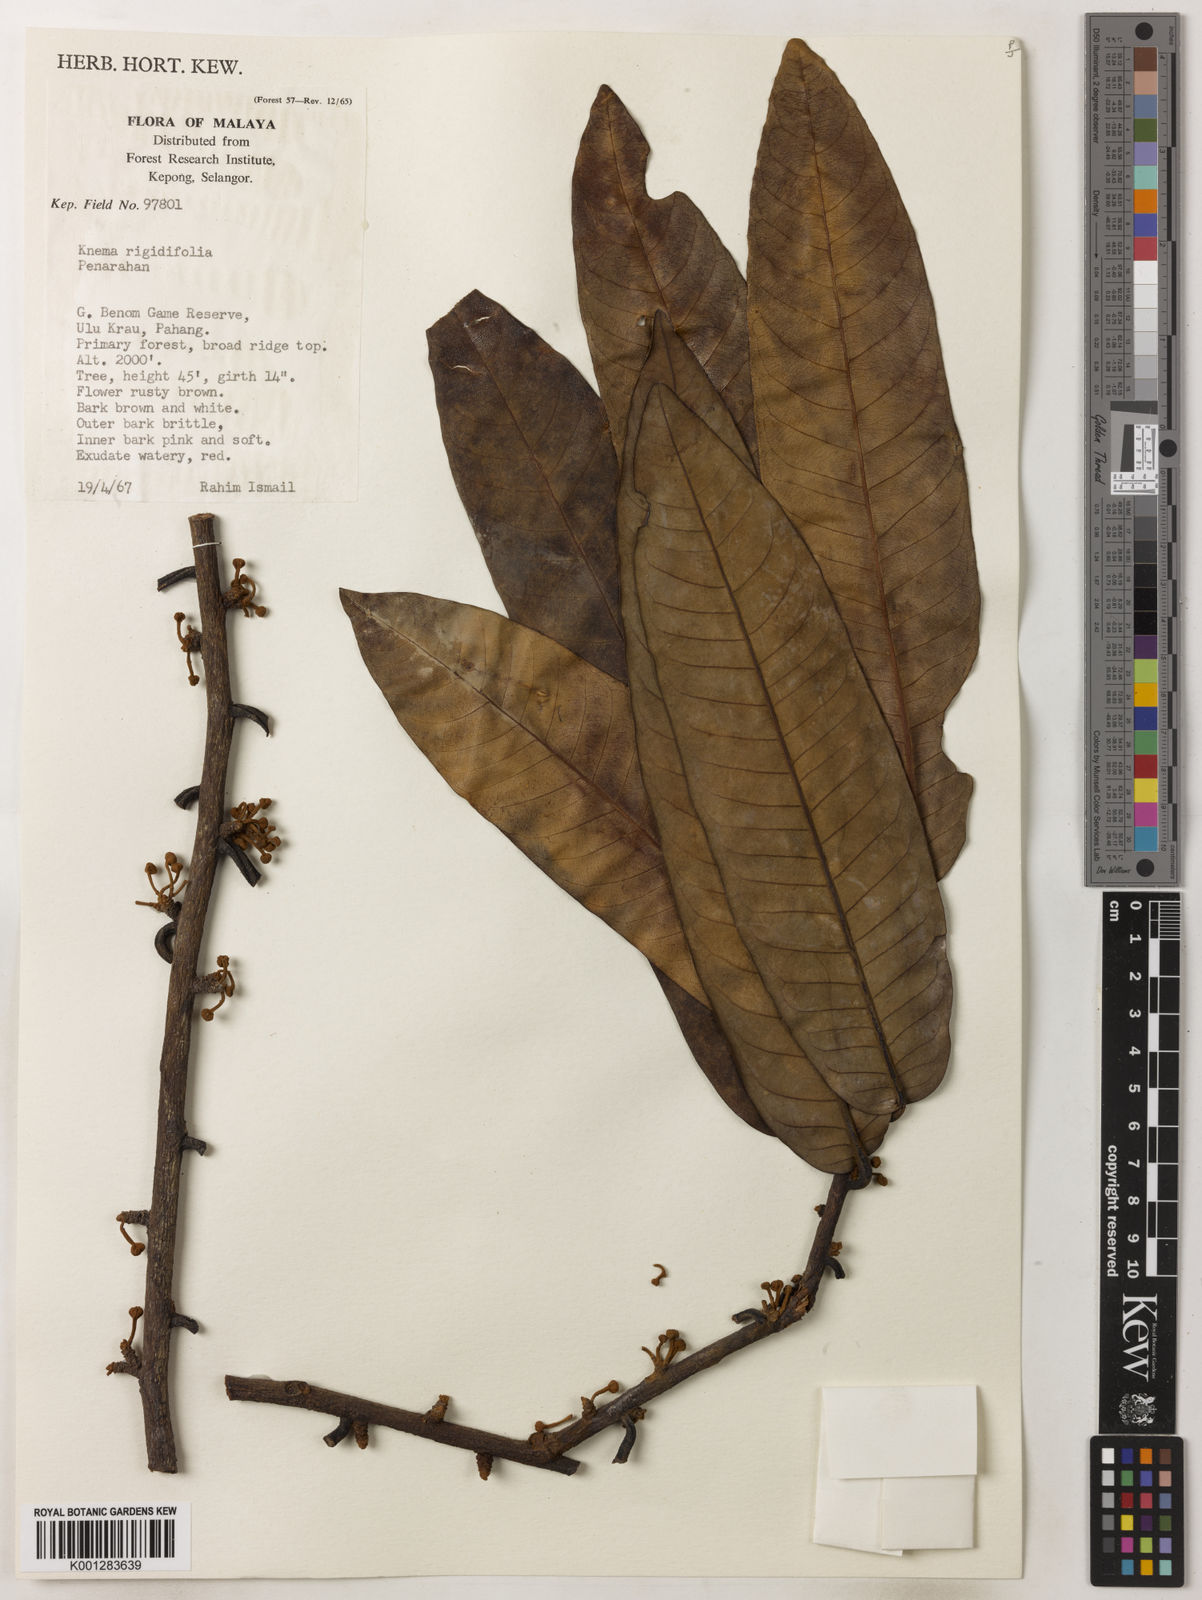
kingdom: Plantae
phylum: Tracheophyta
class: Magnoliopsida
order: Magnoliales
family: Myristicaceae
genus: Knema
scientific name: Knema rigidifolia
